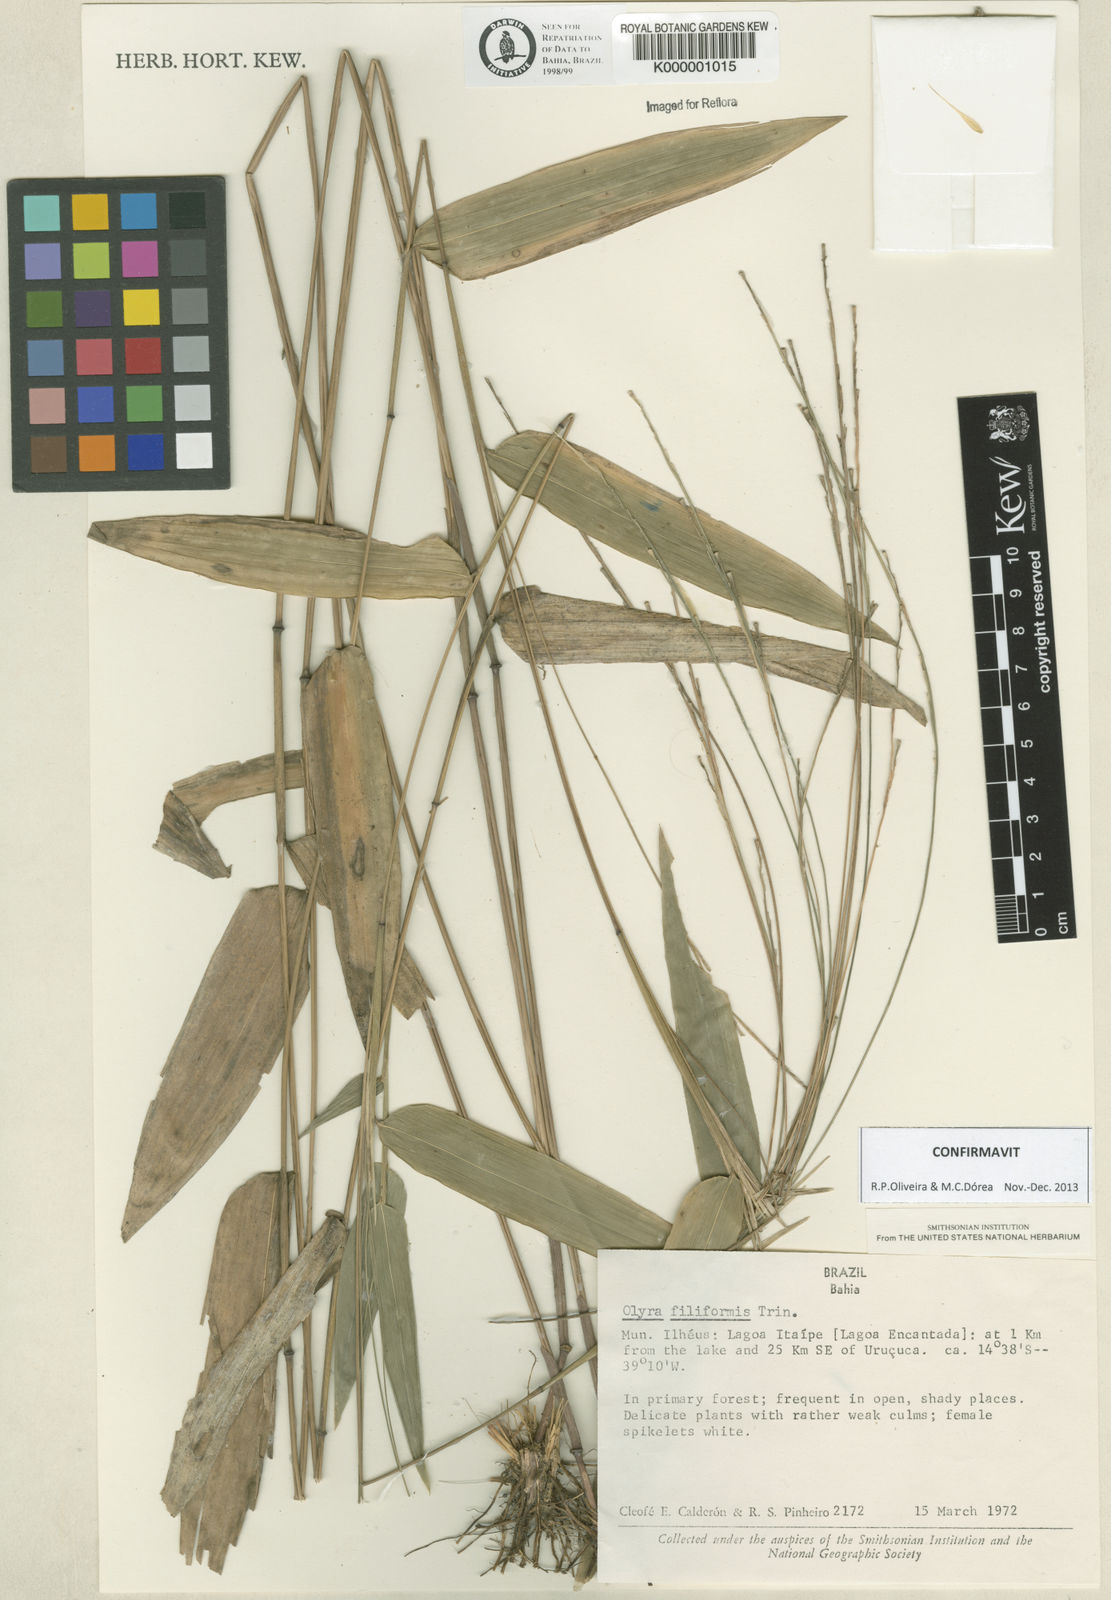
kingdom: Plantae
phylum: Tracheophyta
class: Liliopsida
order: Poales
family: Poaceae
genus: Olyra
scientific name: Olyra filiformis
